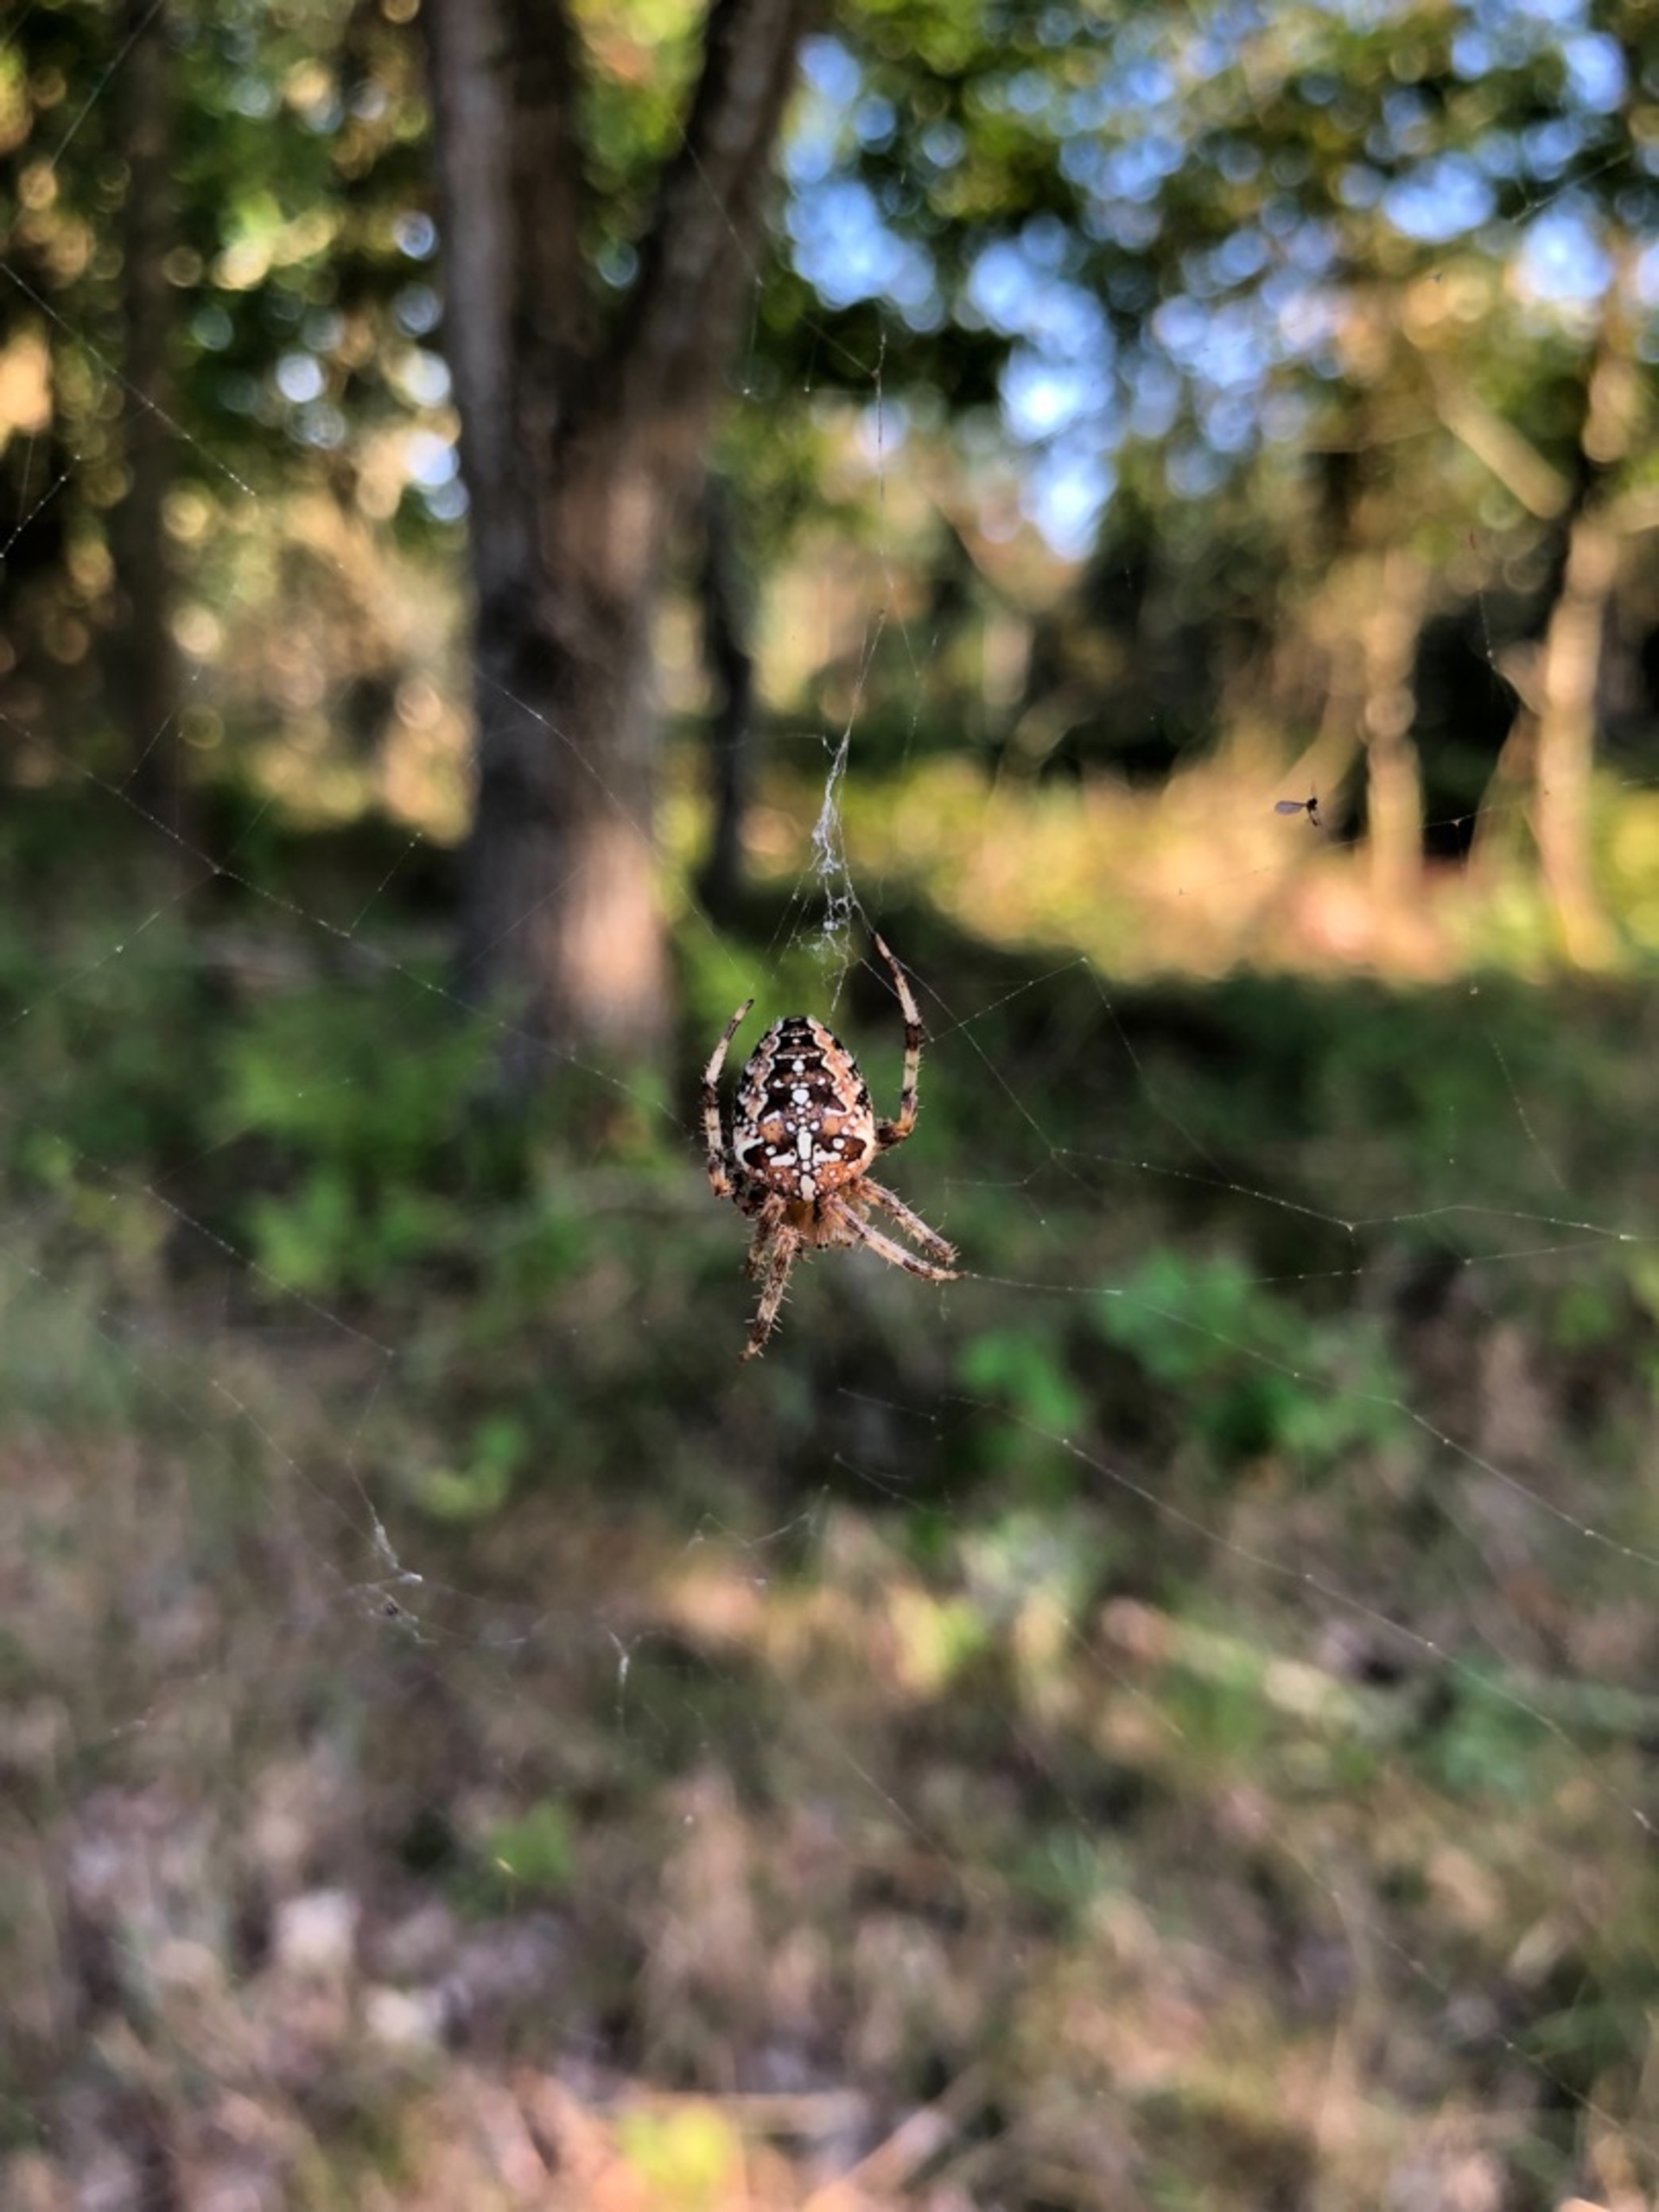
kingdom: Animalia
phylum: Arthropoda
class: Arachnida
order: Araneae
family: Araneidae
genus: Araneus
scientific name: Araneus diadematus
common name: Korsedderkop
